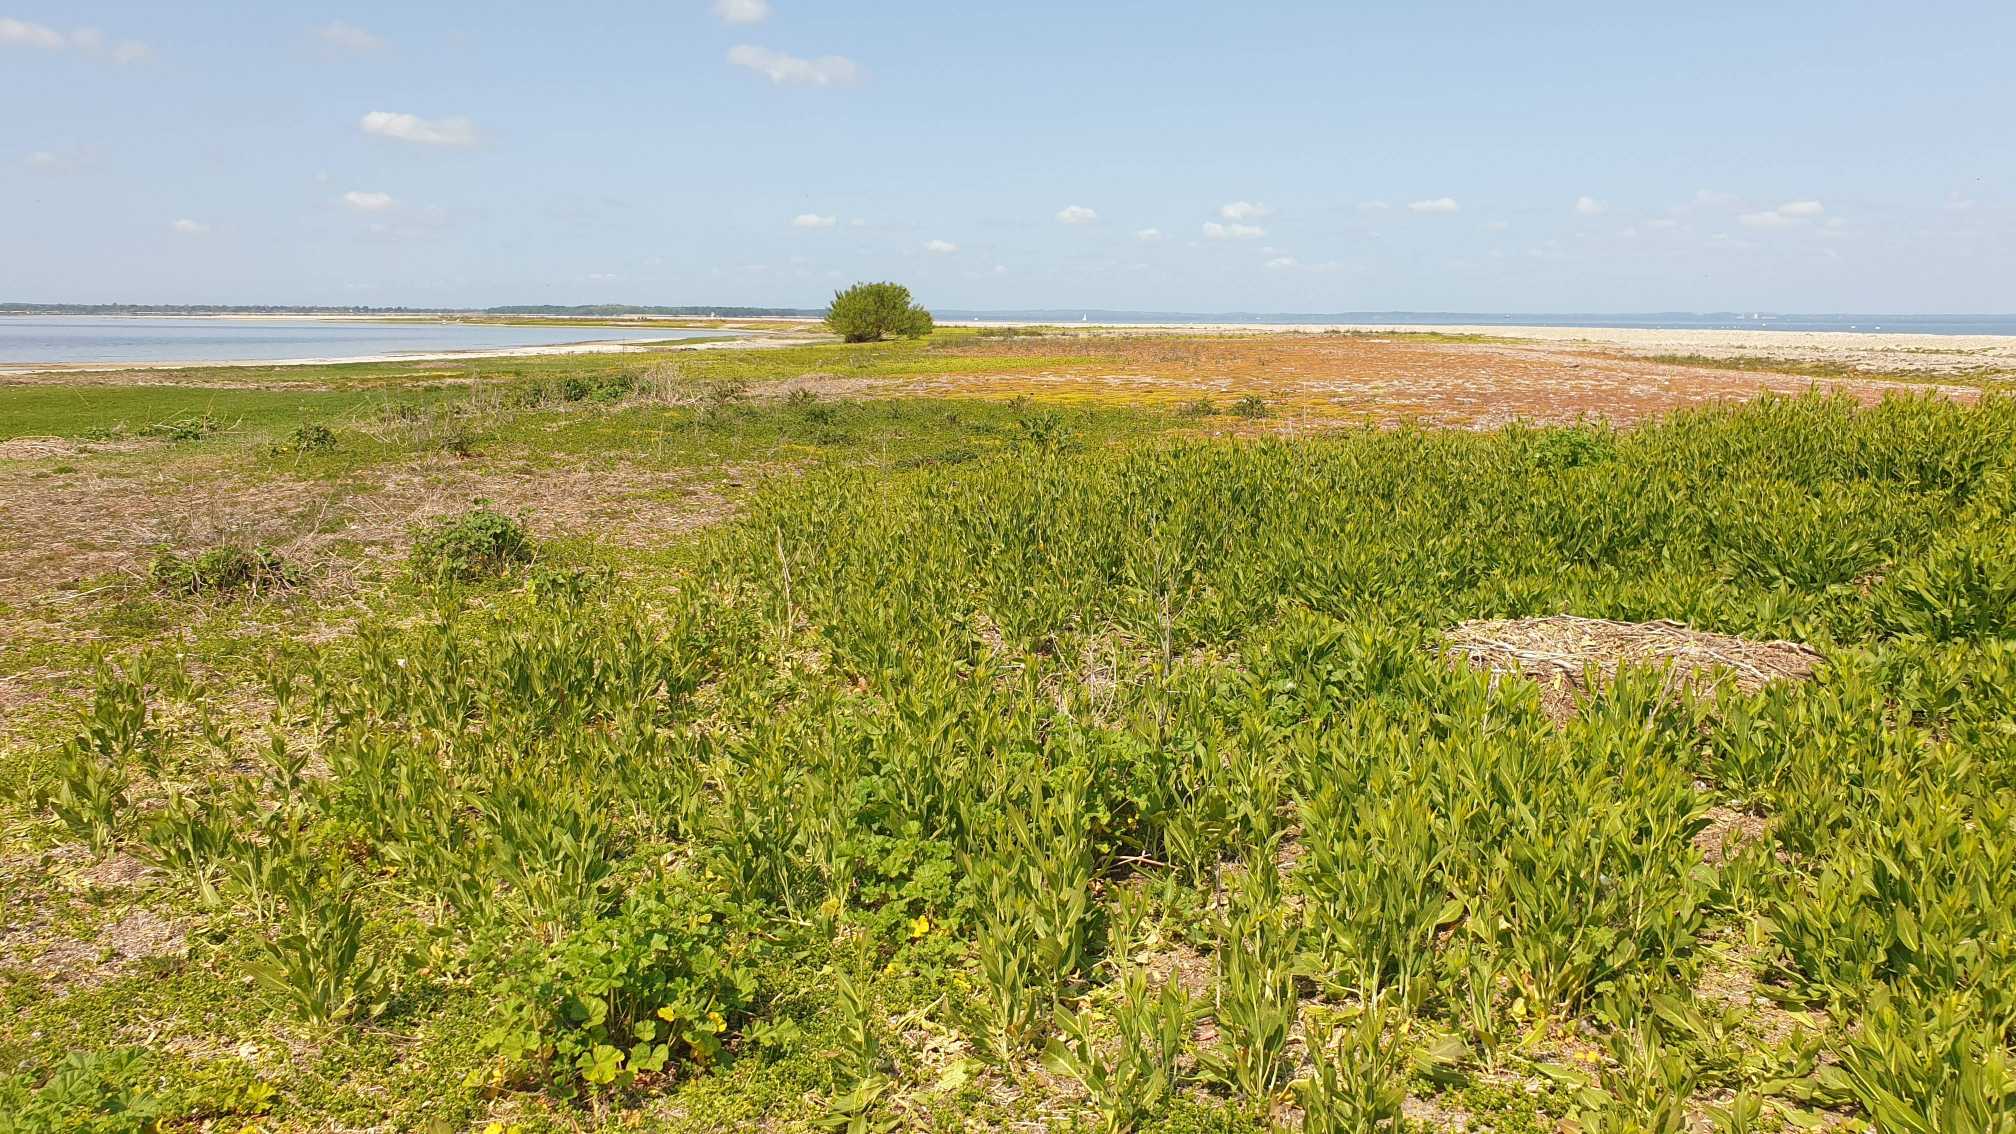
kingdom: Plantae
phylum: Tracheophyta
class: Magnoliopsida
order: Brassicales
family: Brassicaceae
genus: Lepidium
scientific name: Lepidium latifolium
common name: Strand-karse
